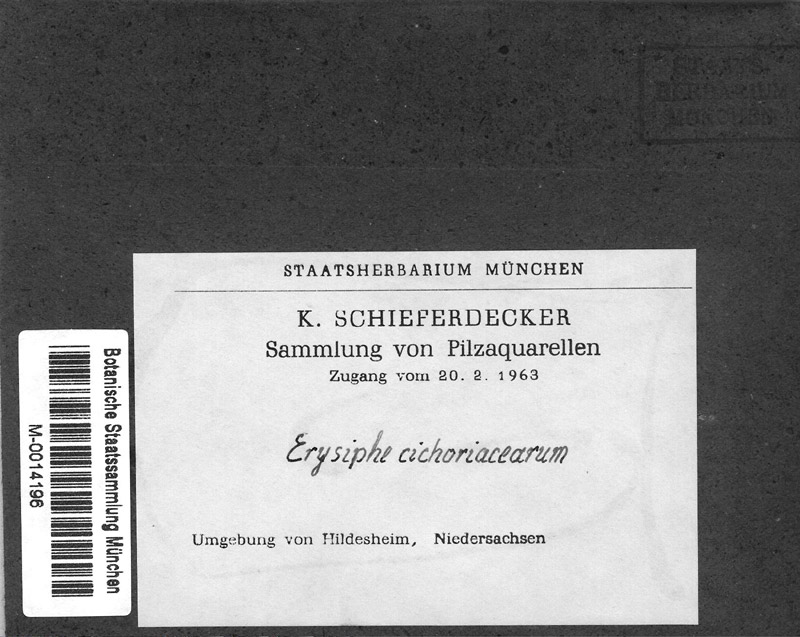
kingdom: Fungi
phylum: Ascomycota
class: Leotiomycetes
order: Helotiales
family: Erysiphaceae
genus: Erysiphe
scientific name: Erysiphe cichoracearum
